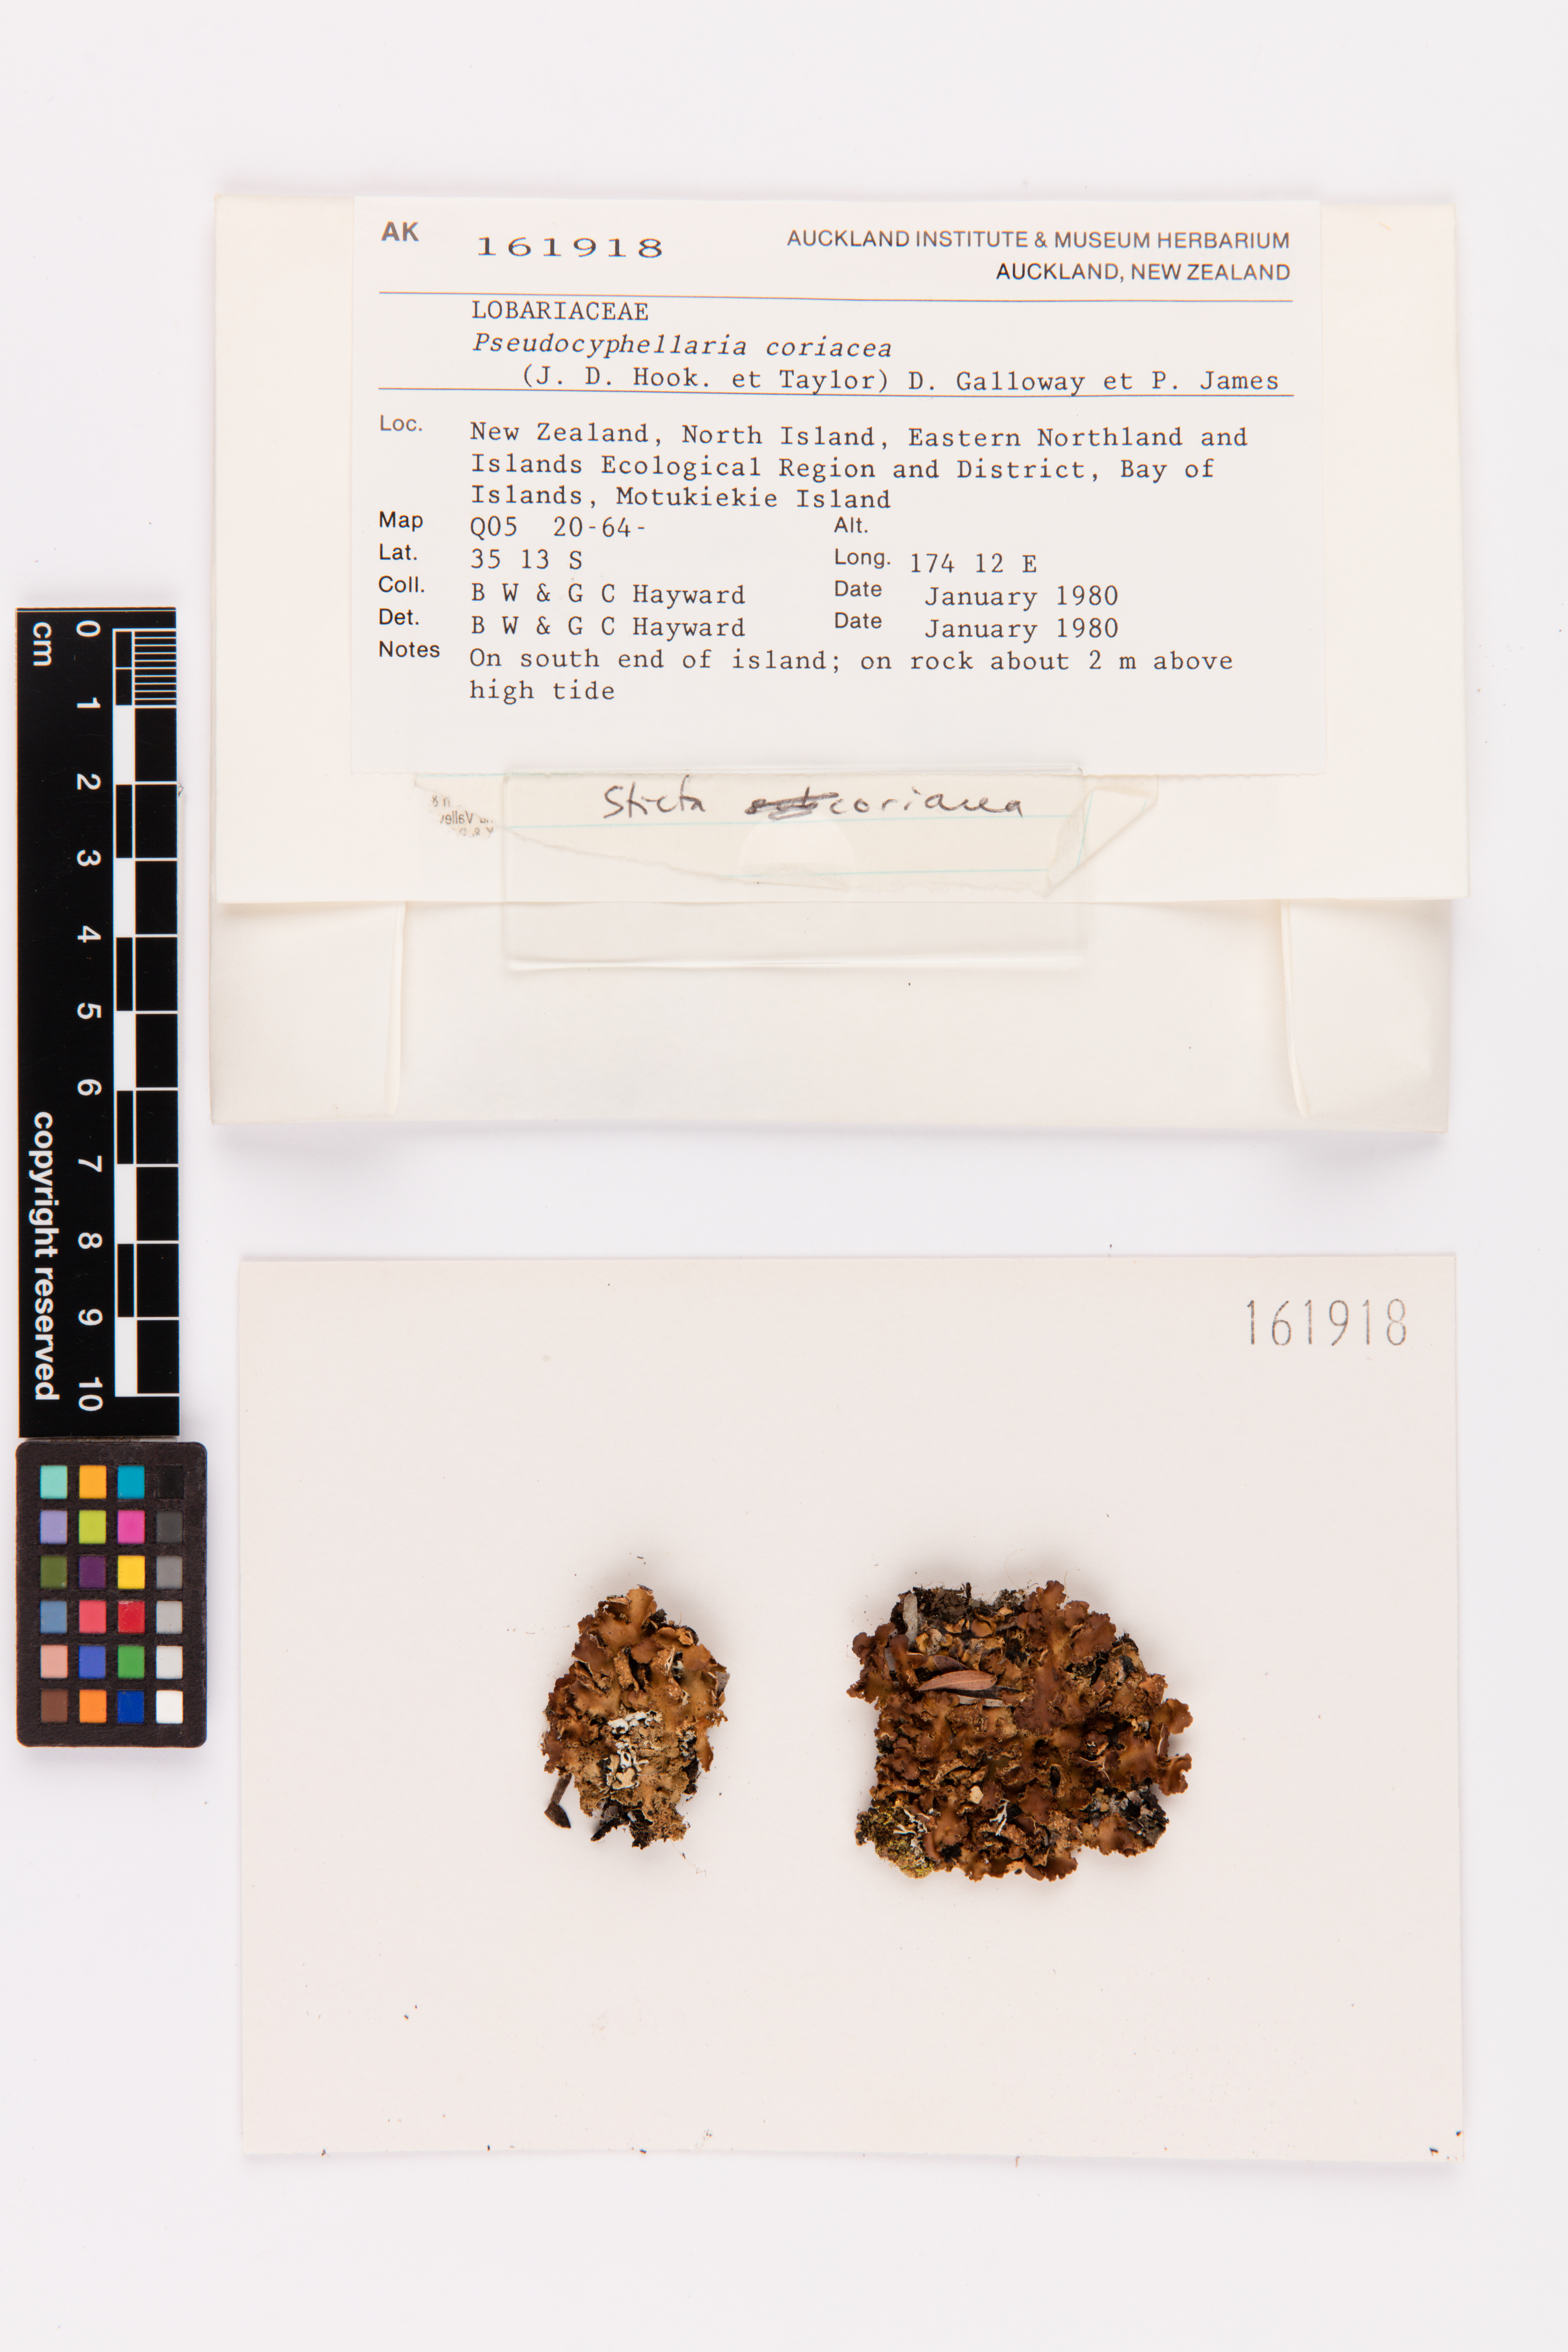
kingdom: Fungi
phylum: Ascomycota
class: Lecanoromycetes
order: Peltigerales
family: Lobariaceae
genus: Pseudocyphellaria
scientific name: Pseudocyphellaria coriacea
